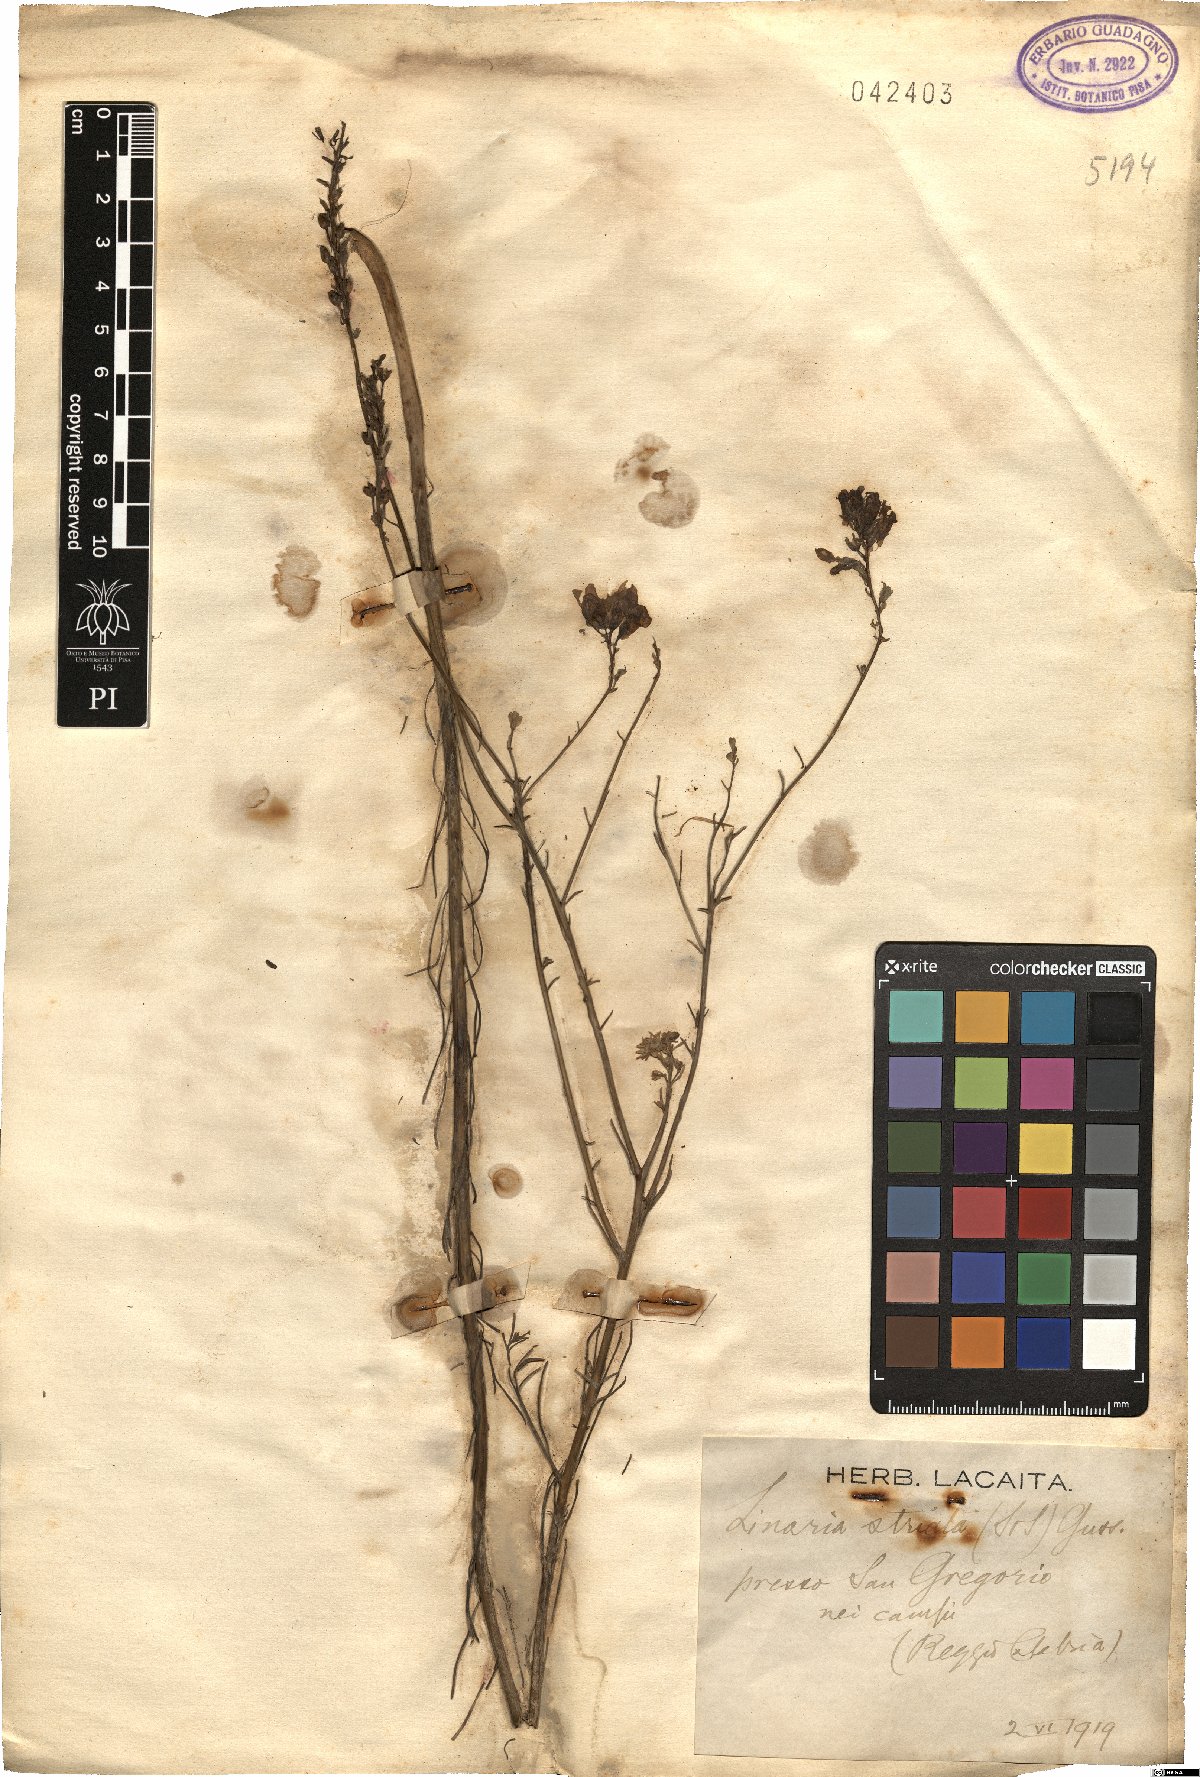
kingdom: Plantae
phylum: Tracheophyta
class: Magnoliopsida
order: Lamiales
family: Plantaginaceae
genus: Linaria
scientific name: Linaria repens
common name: Pale toadflax
